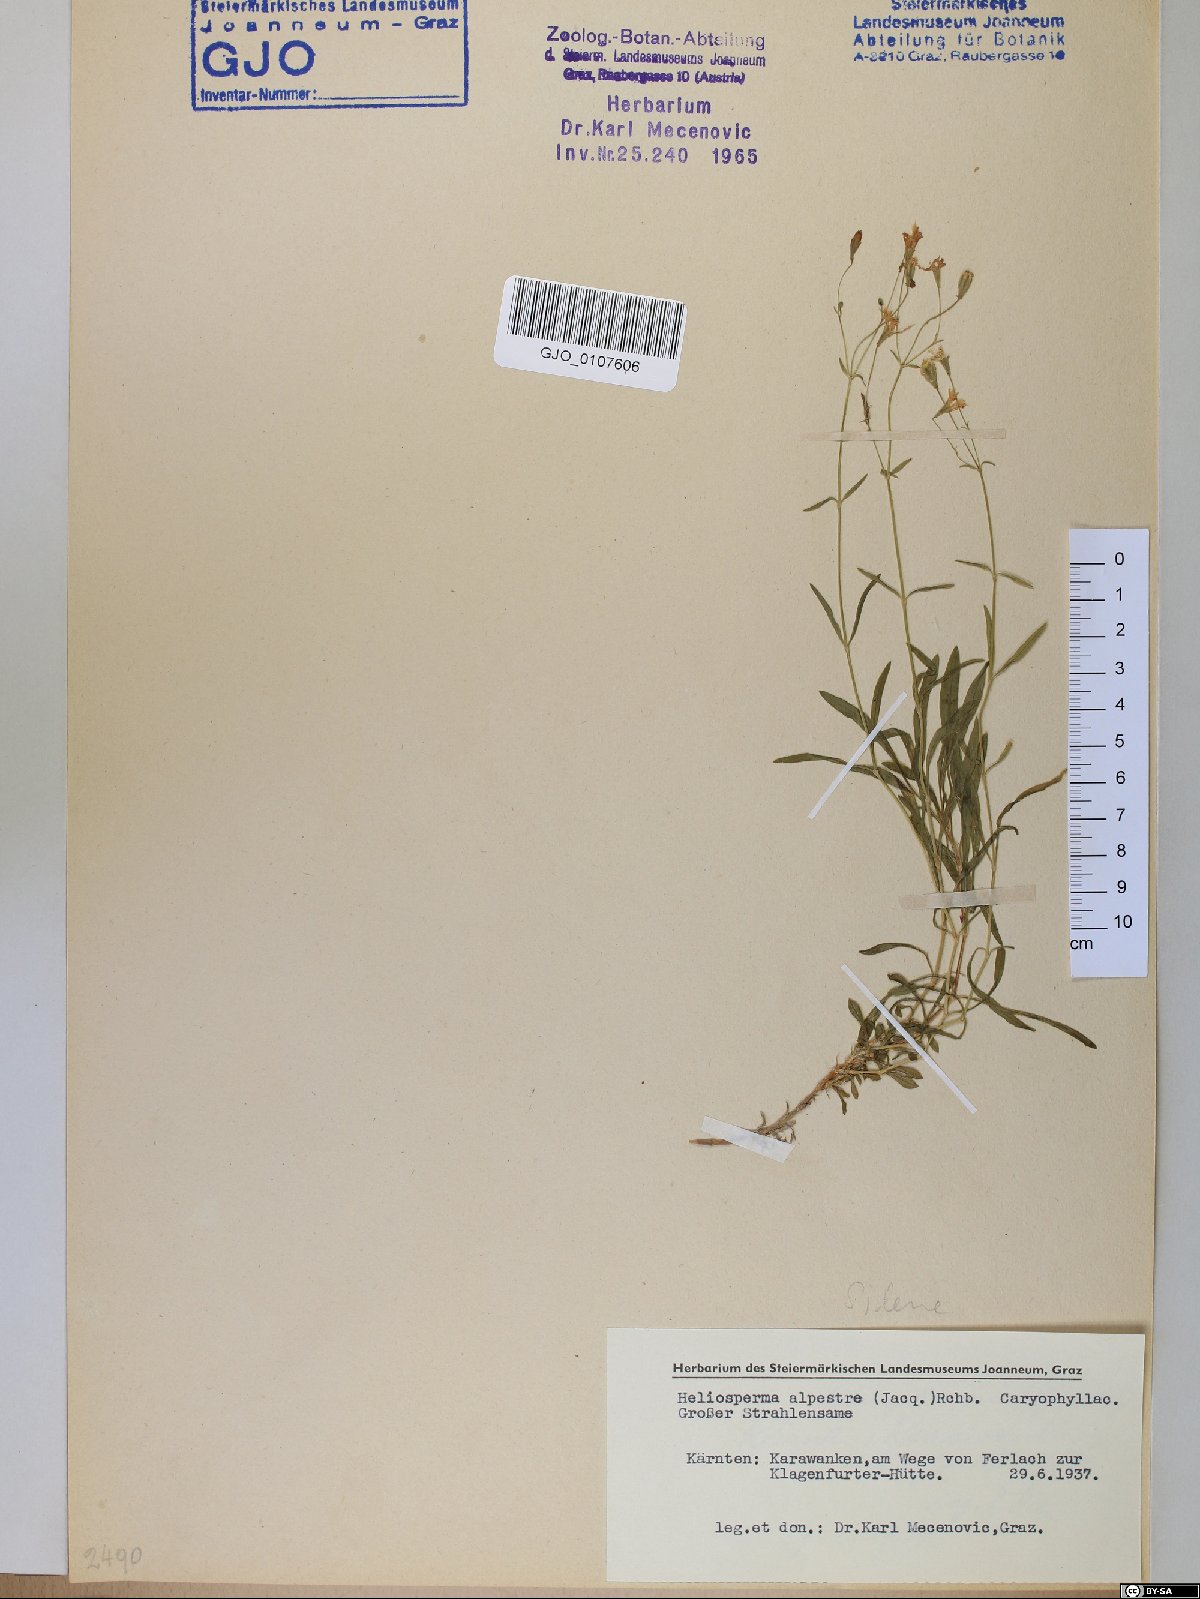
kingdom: Plantae
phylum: Tracheophyta
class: Magnoliopsida
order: Caryophyllales
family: Caryophyllaceae
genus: Heliosperma
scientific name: Heliosperma alpestre
